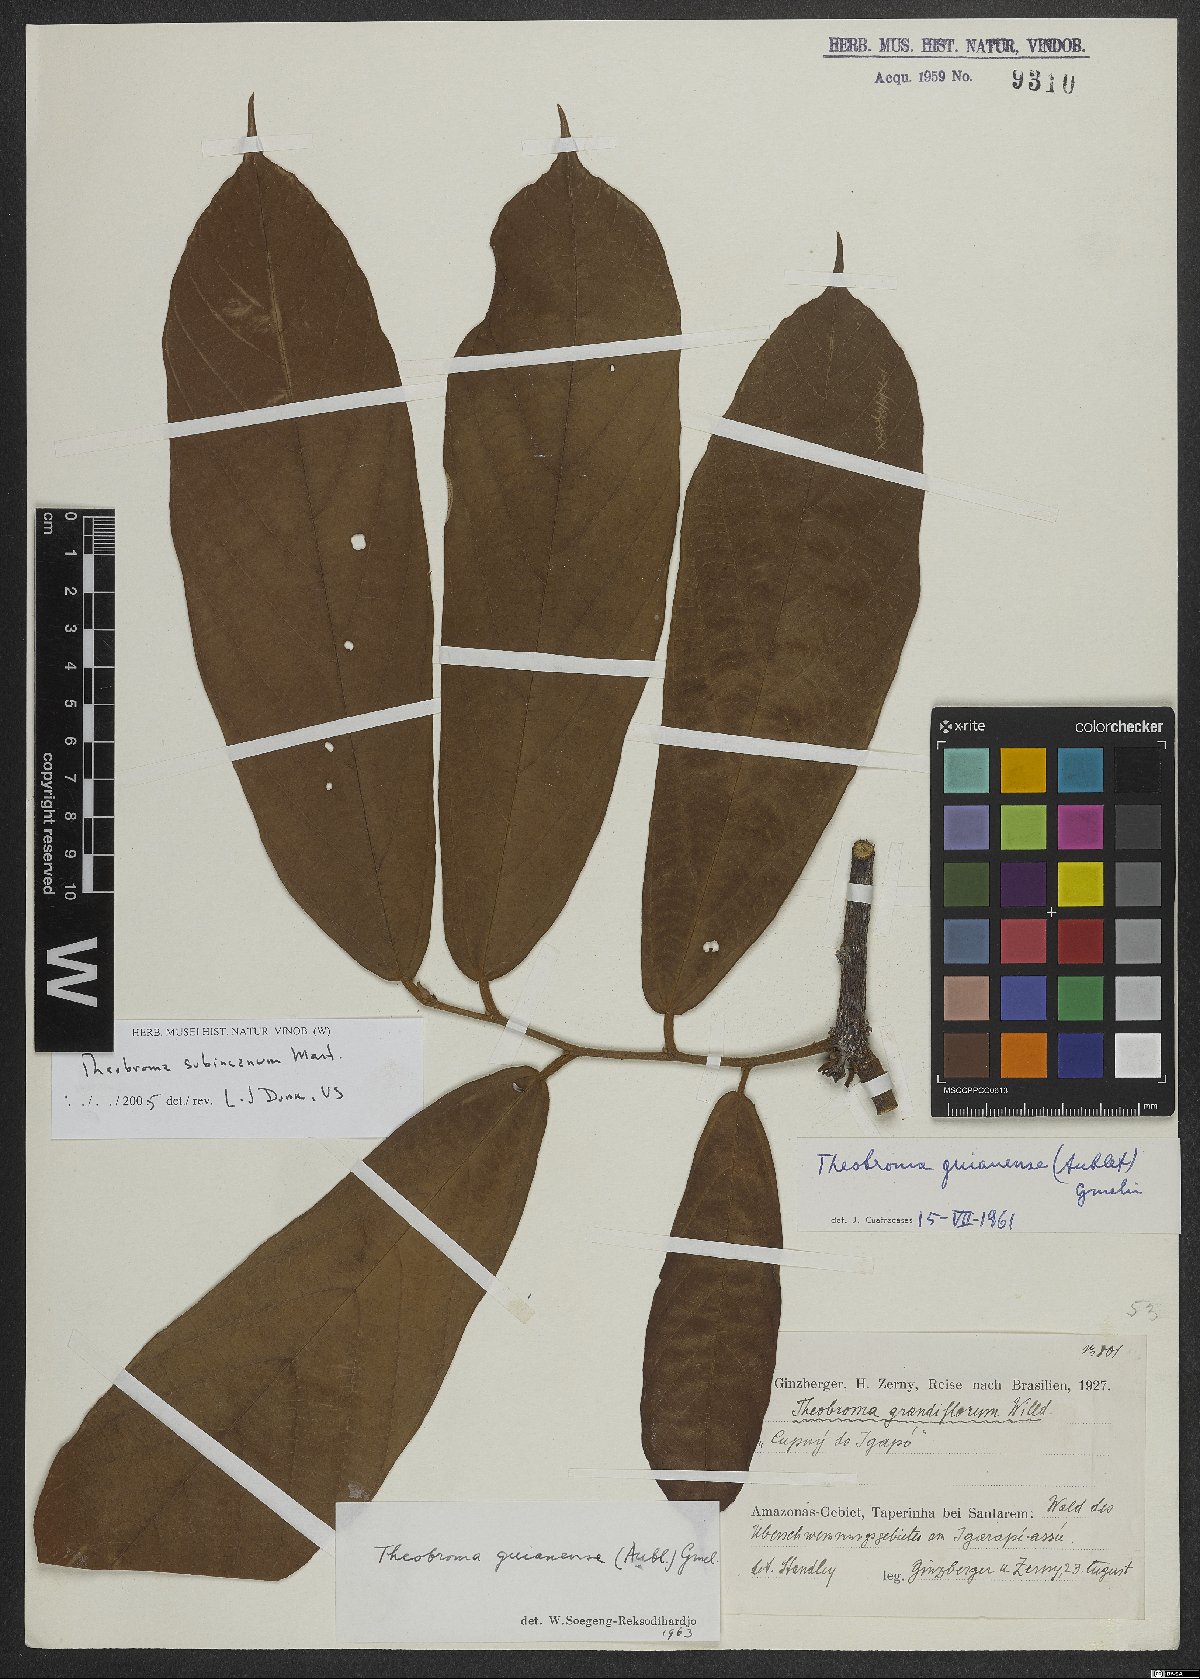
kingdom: Plantae
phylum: Tracheophyta
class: Magnoliopsida
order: Malvales
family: Malvaceae
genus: Theobroma
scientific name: Theobroma subincanum
